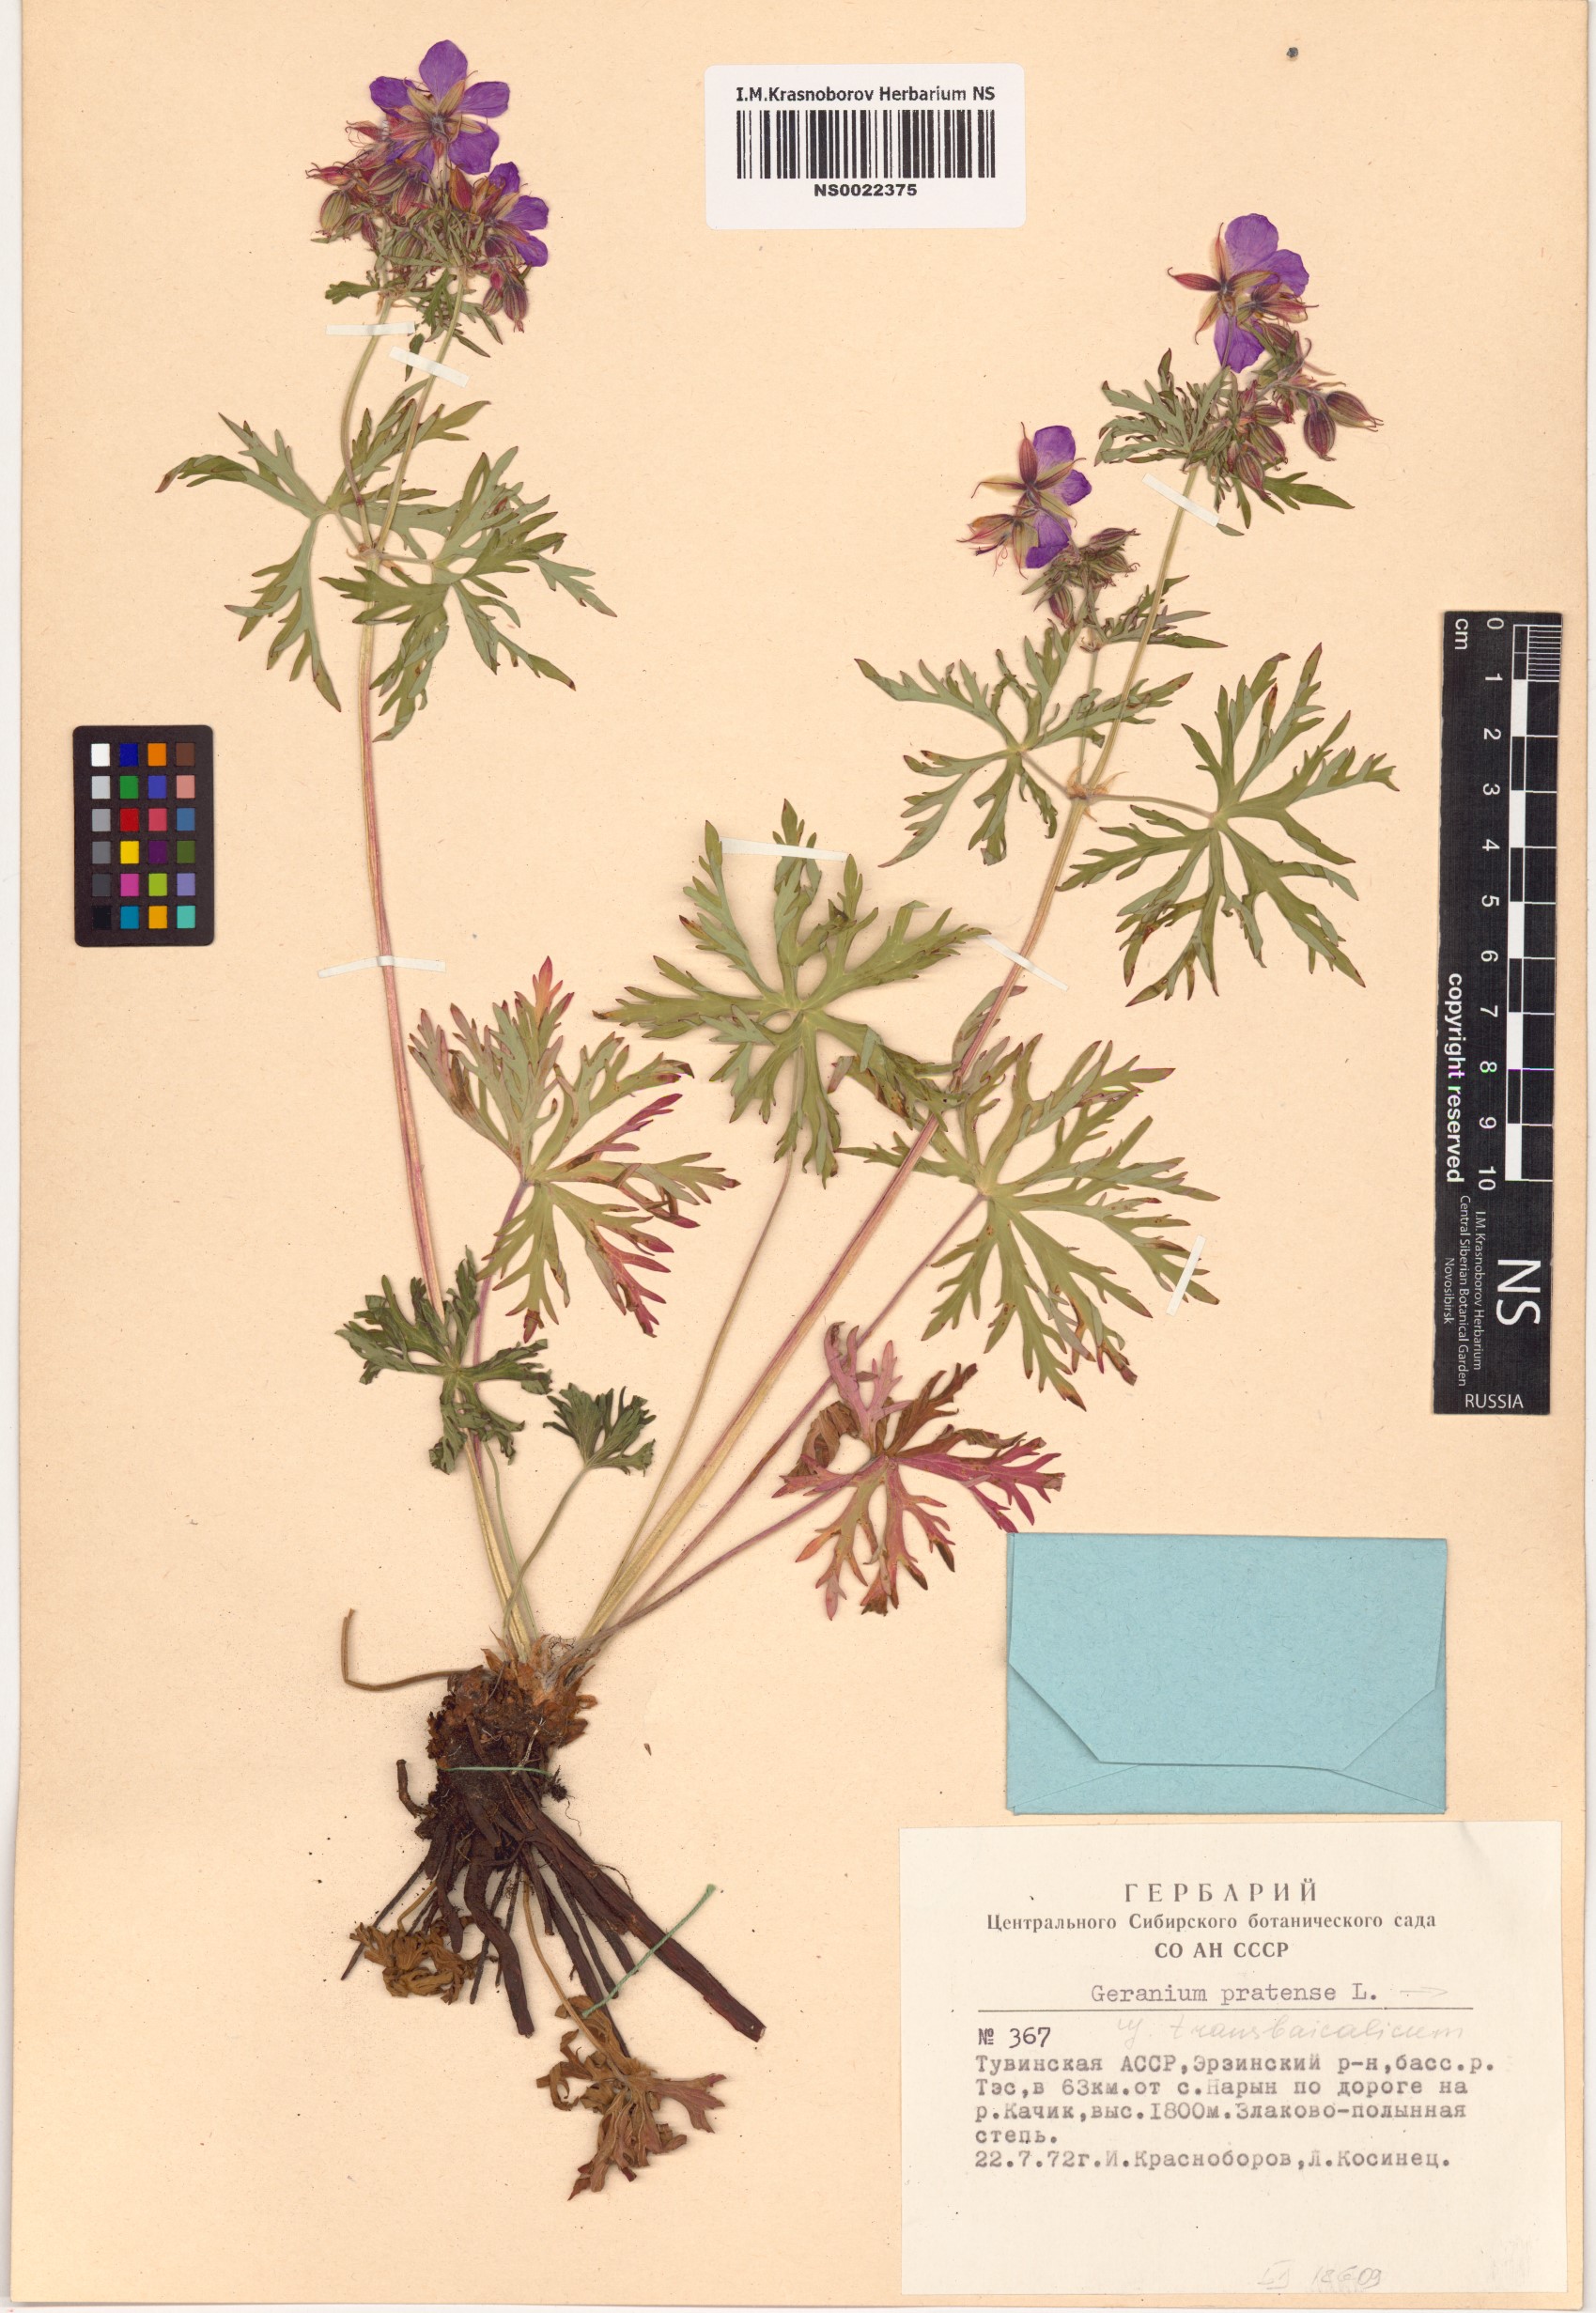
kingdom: Plantae
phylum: Tracheophyta
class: Magnoliopsida
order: Geraniales
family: Geraniaceae
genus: Geranium
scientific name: Geranium pratense
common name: Meadow crane's-bill
